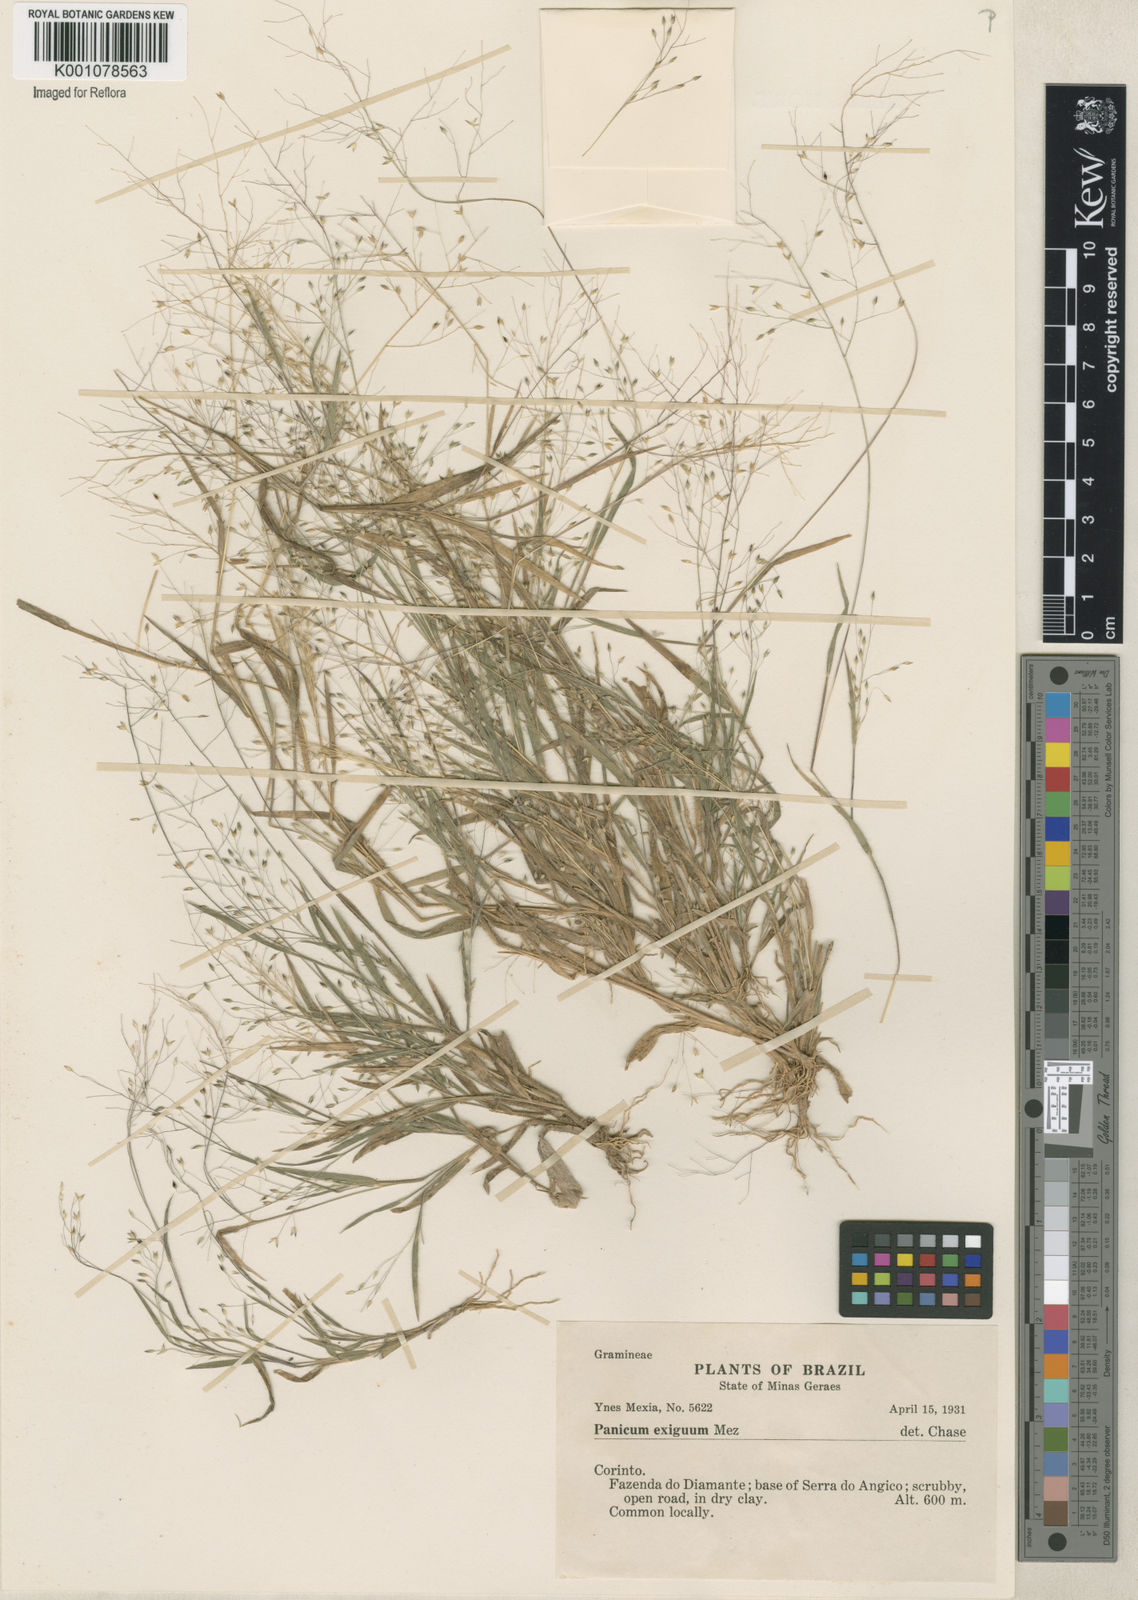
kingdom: Plantae
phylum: Tracheophyta
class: Liliopsida
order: Poales
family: Poaceae
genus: Panicum
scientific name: Panicum exiguum
